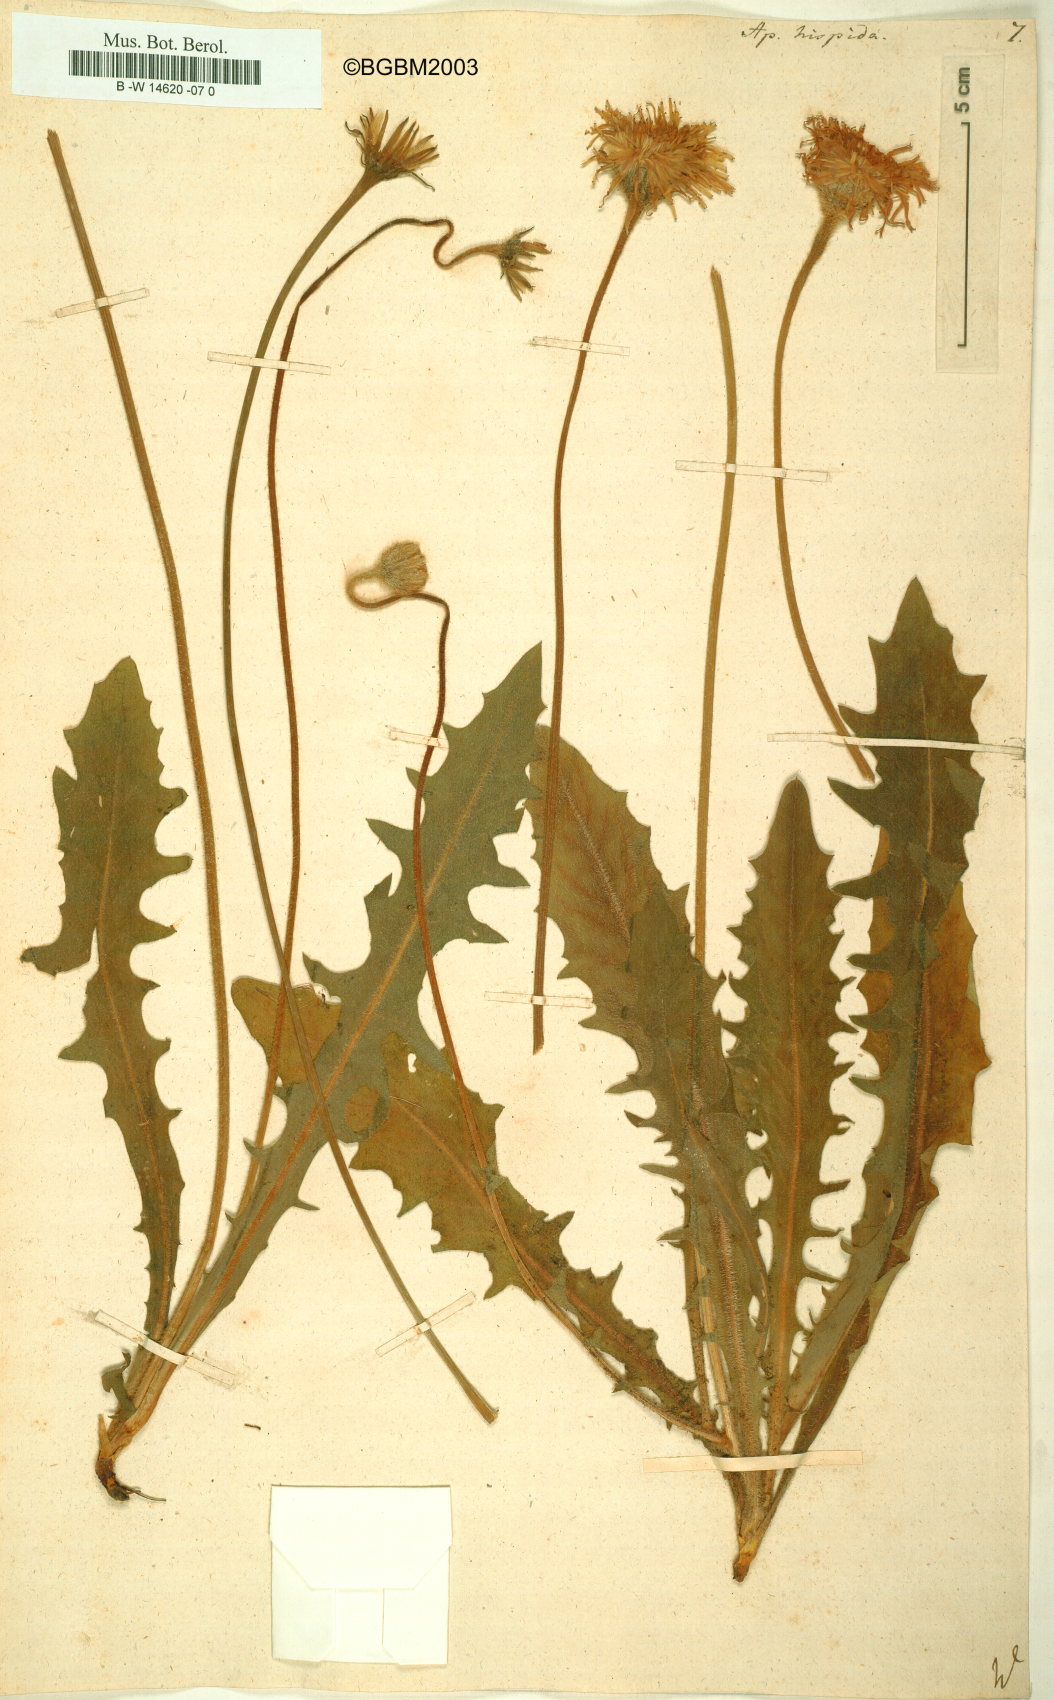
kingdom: Plantae
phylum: Tracheophyta
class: Magnoliopsida
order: Asterales
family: Asteraceae
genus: Leontodon
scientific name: Leontodon
